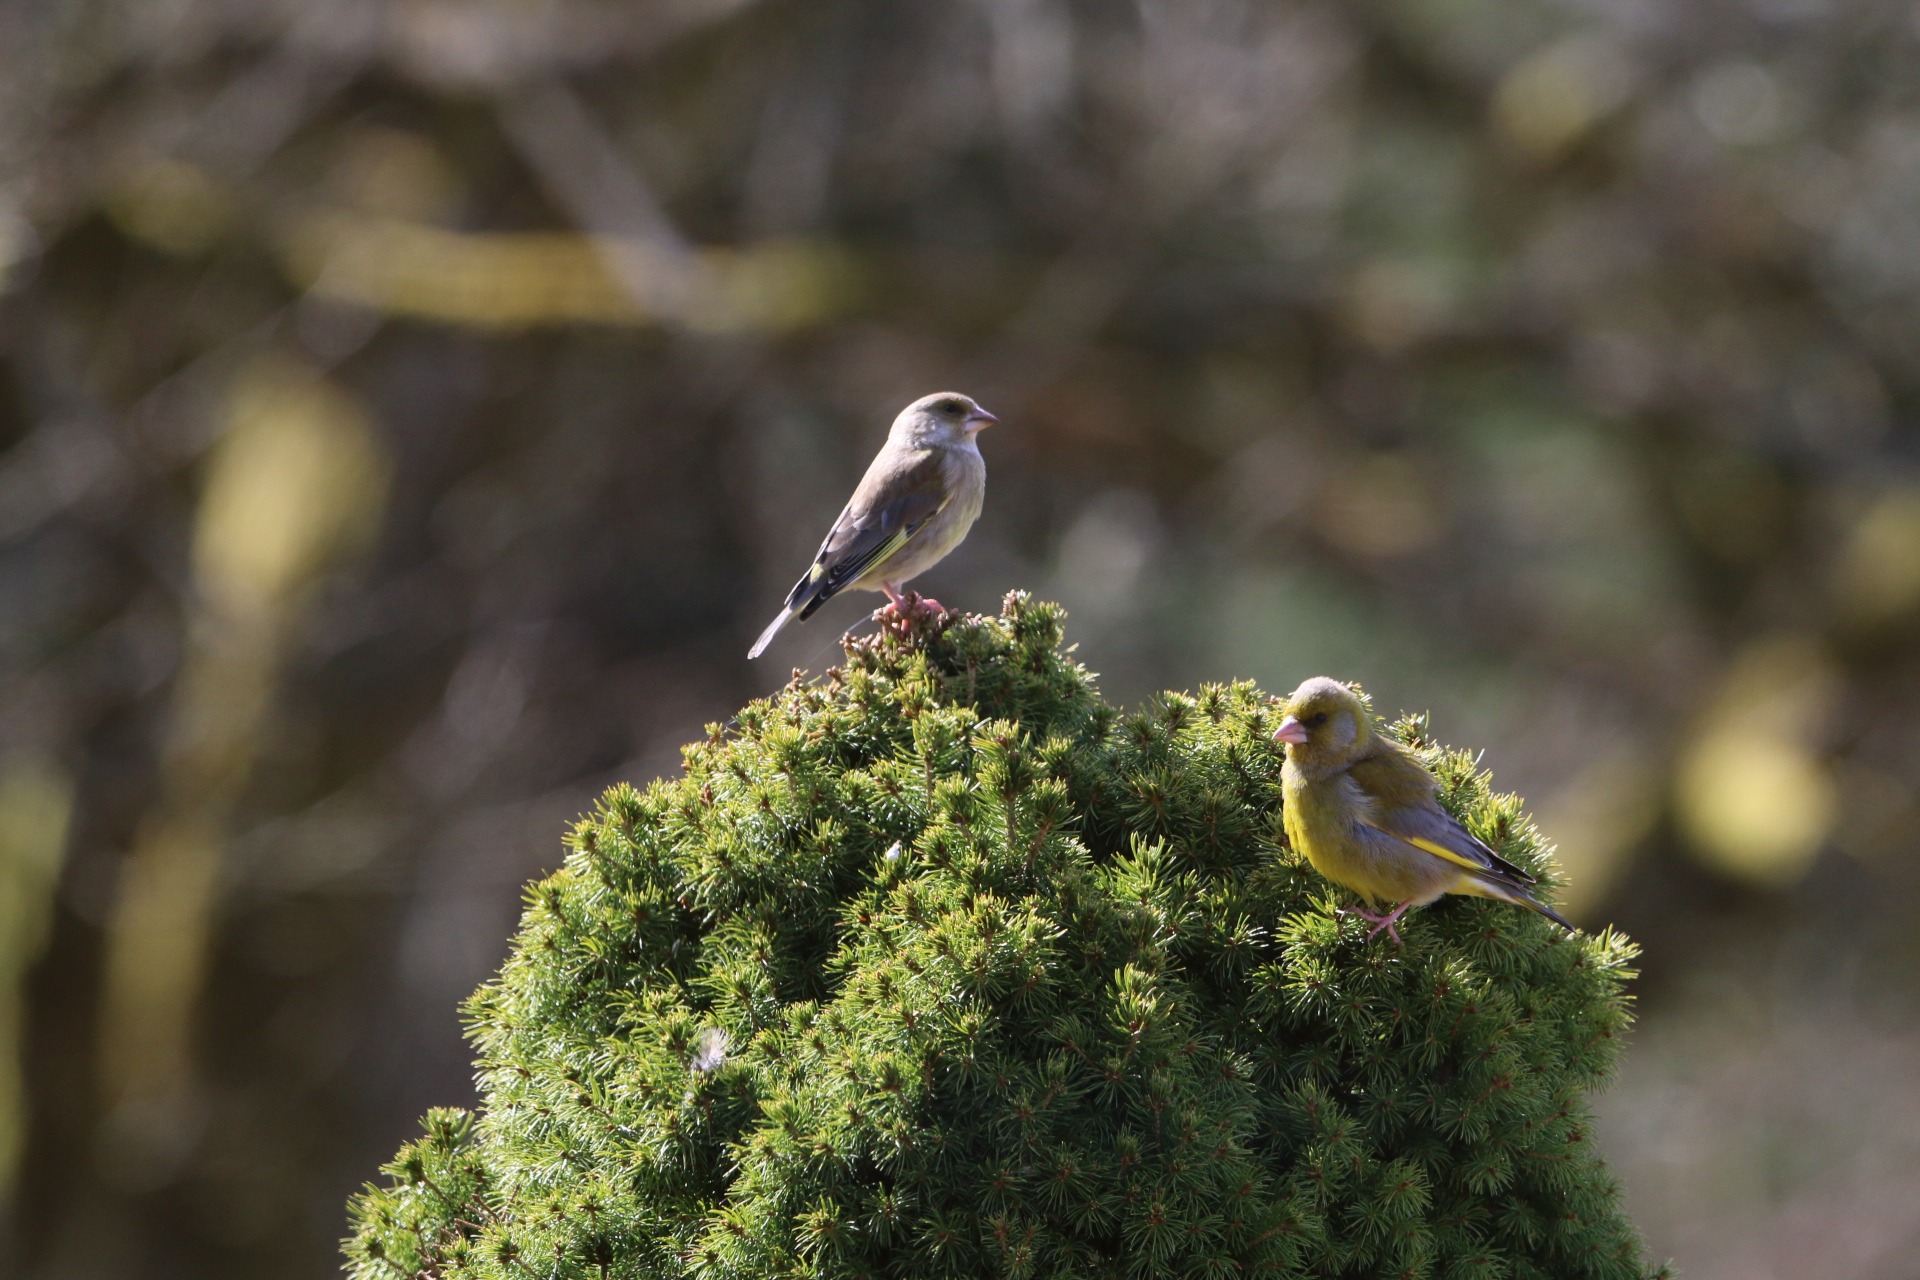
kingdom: Plantae
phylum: Tracheophyta
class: Liliopsida
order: Poales
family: Poaceae
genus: Chloris
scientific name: Chloris chloris
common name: Grønirisk
